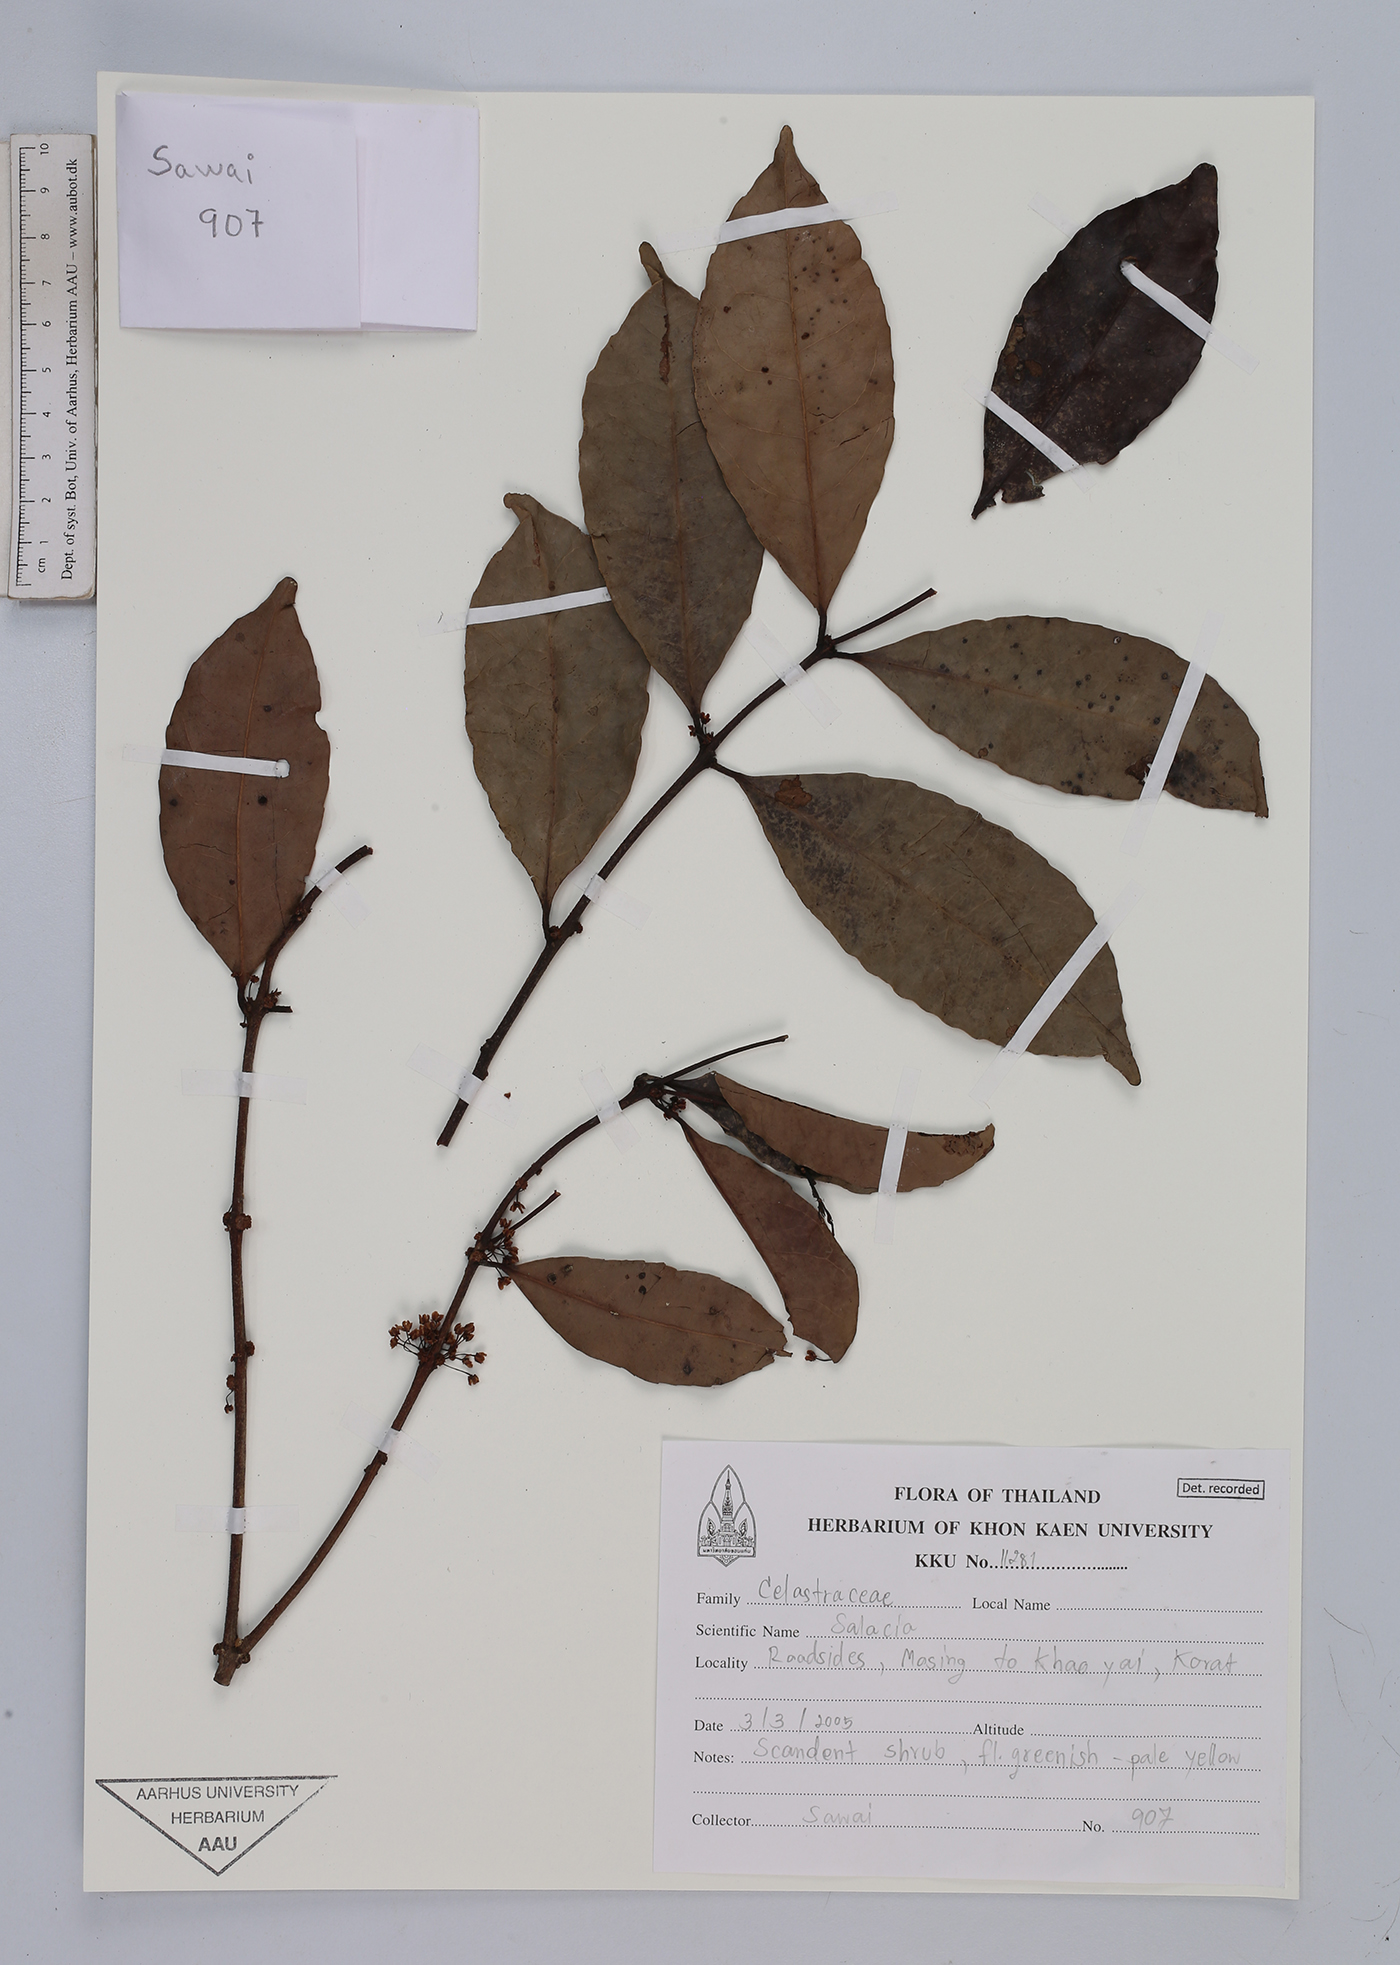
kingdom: Plantae
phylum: Tracheophyta
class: Magnoliopsida
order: Celastrales
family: Celastraceae
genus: Salacia
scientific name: Salacia
